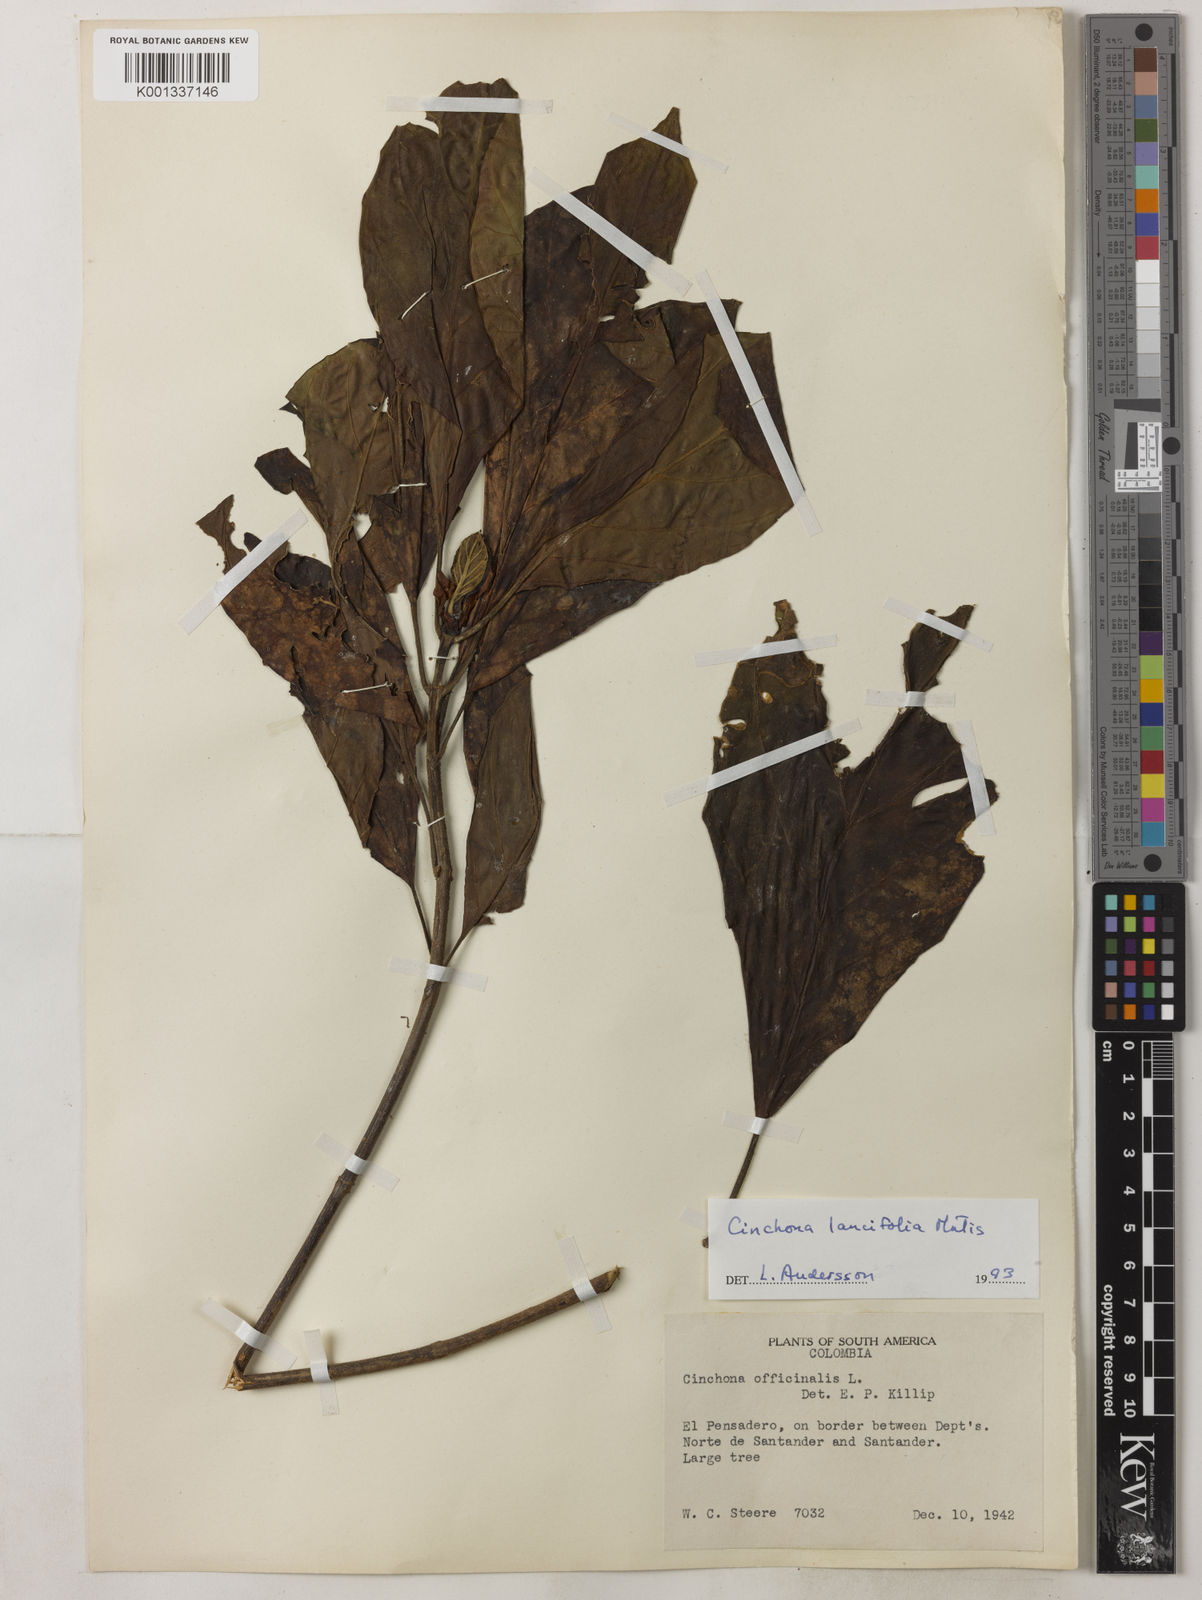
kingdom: Plantae
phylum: Tracheophyta
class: Magnoliopsida
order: Gentianales
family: Rubiaceae
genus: Cinchona
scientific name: Cinchona lancifolia
